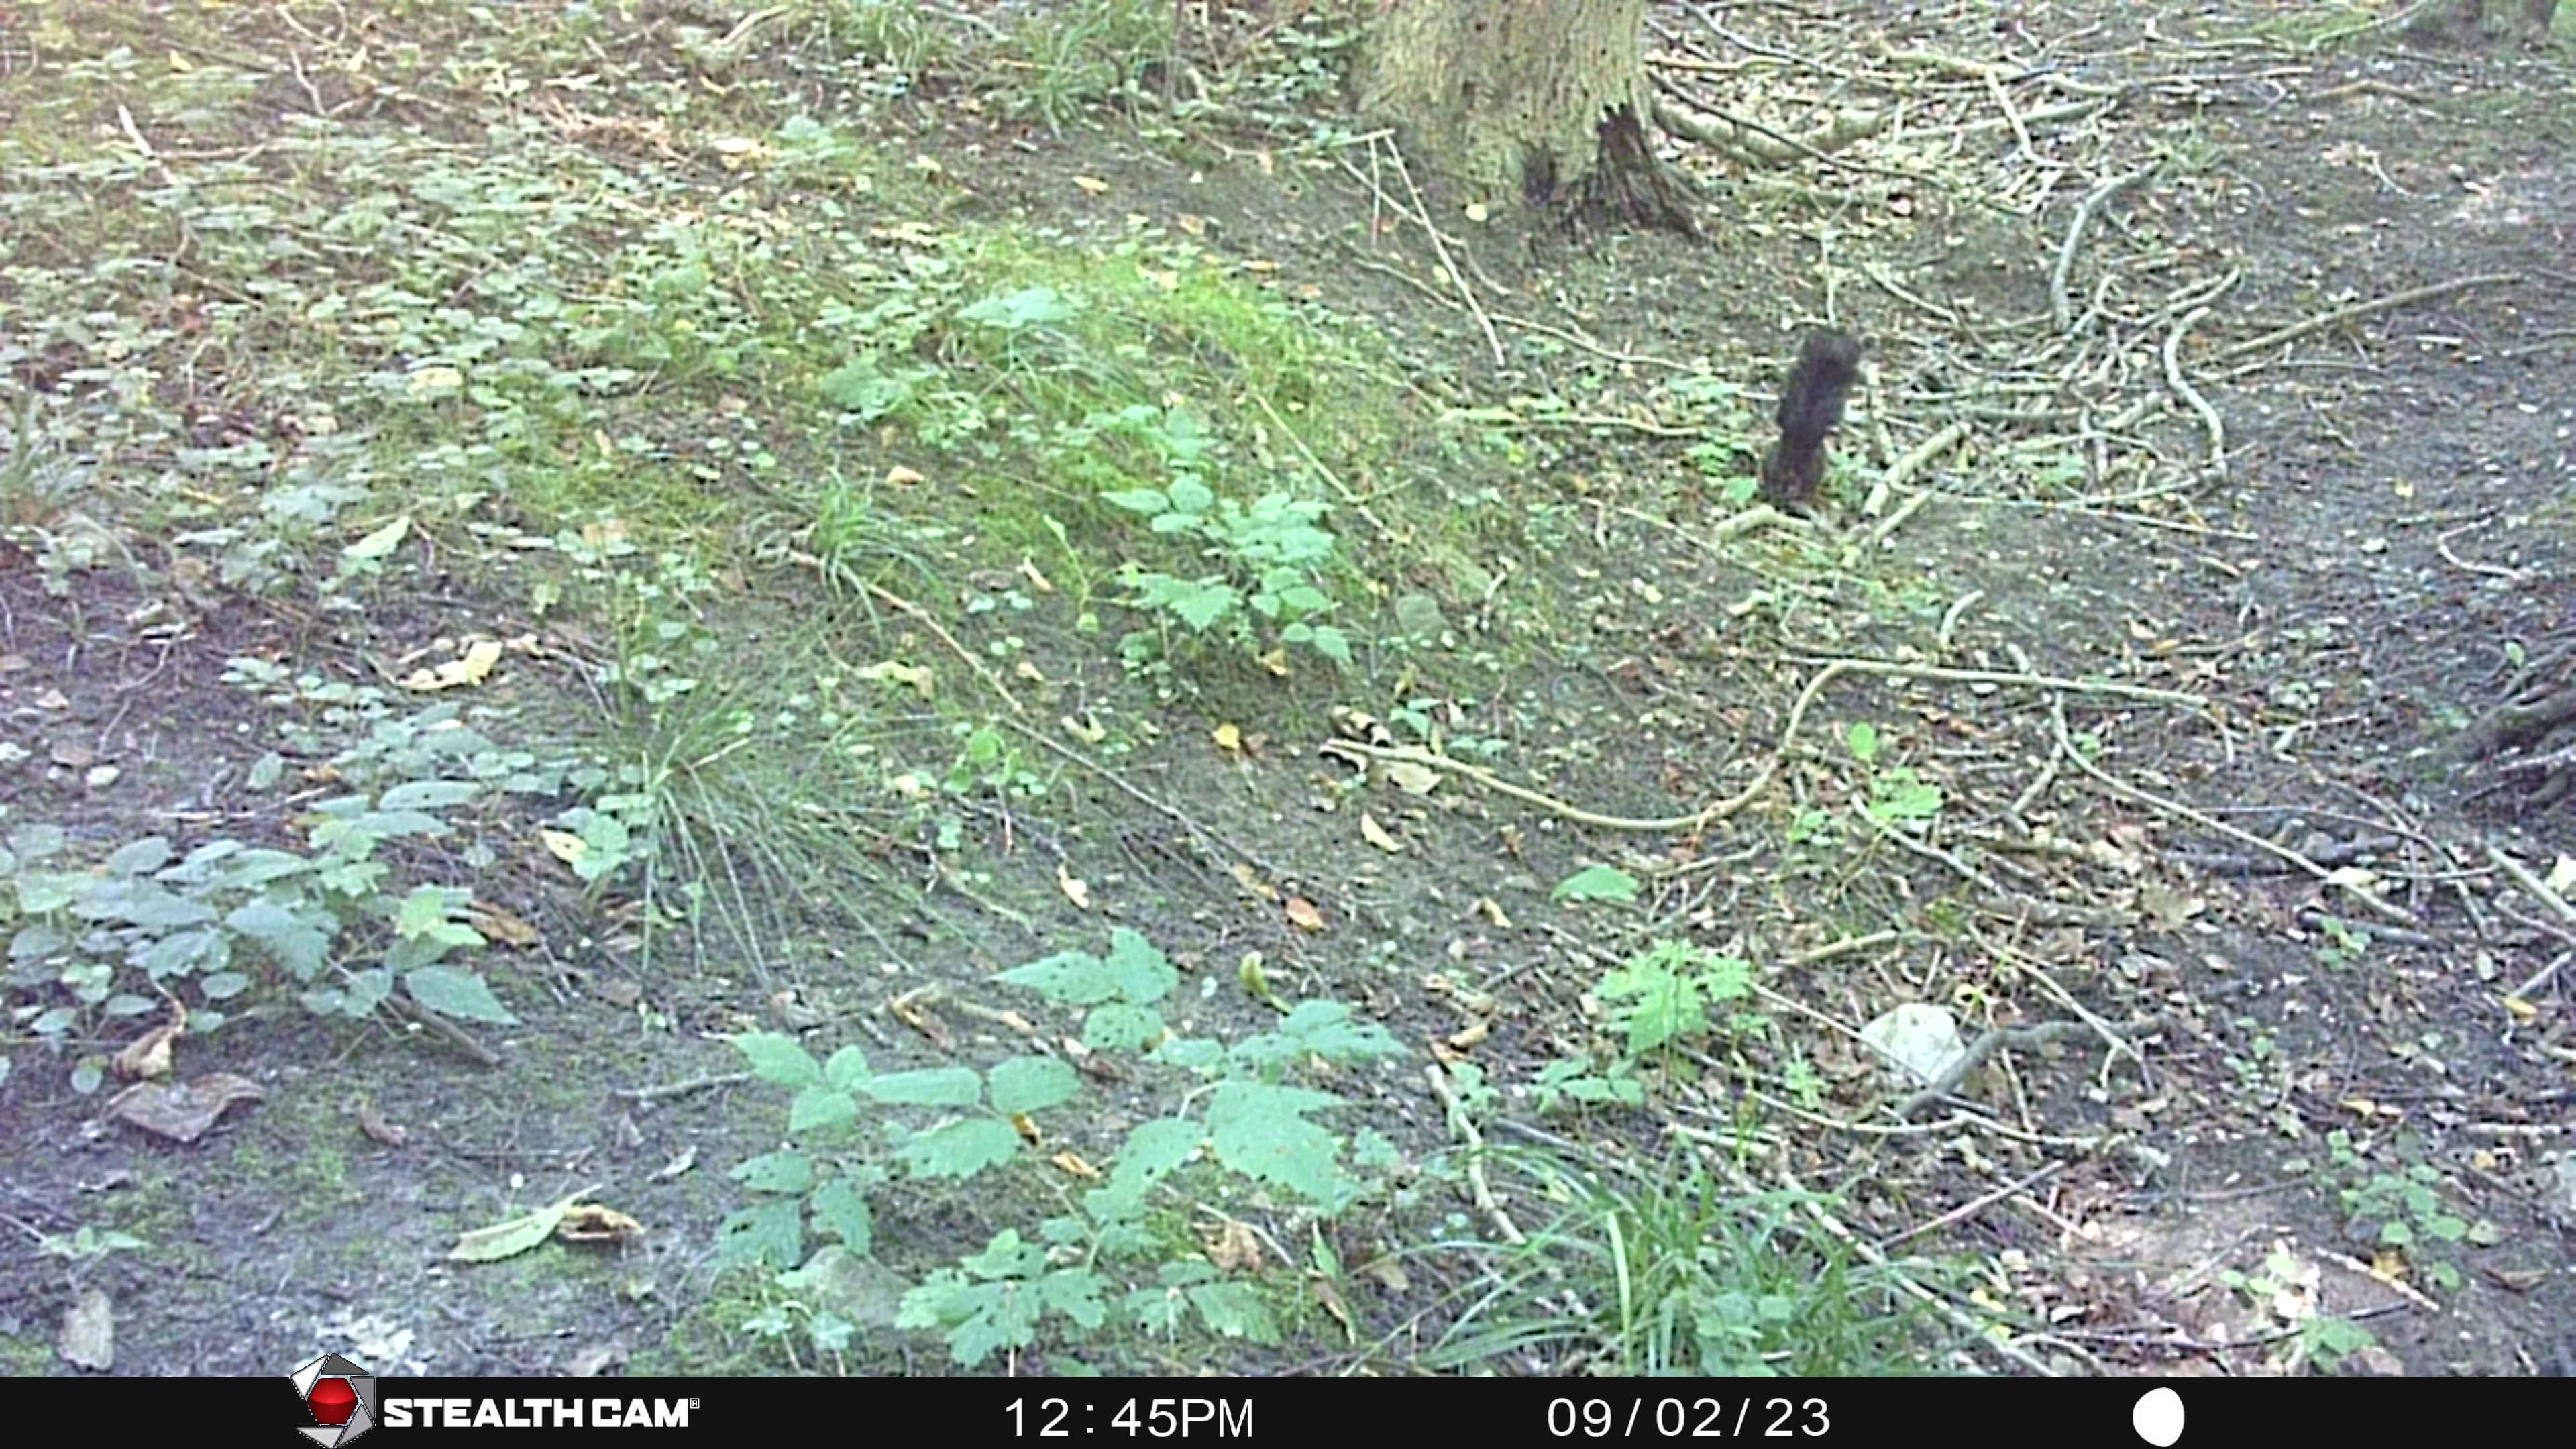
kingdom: Animalia
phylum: Chordata
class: Mammalia
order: Rodentia
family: Sciuridae
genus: Sciurus
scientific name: Sciurus vulgaris
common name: Egern
